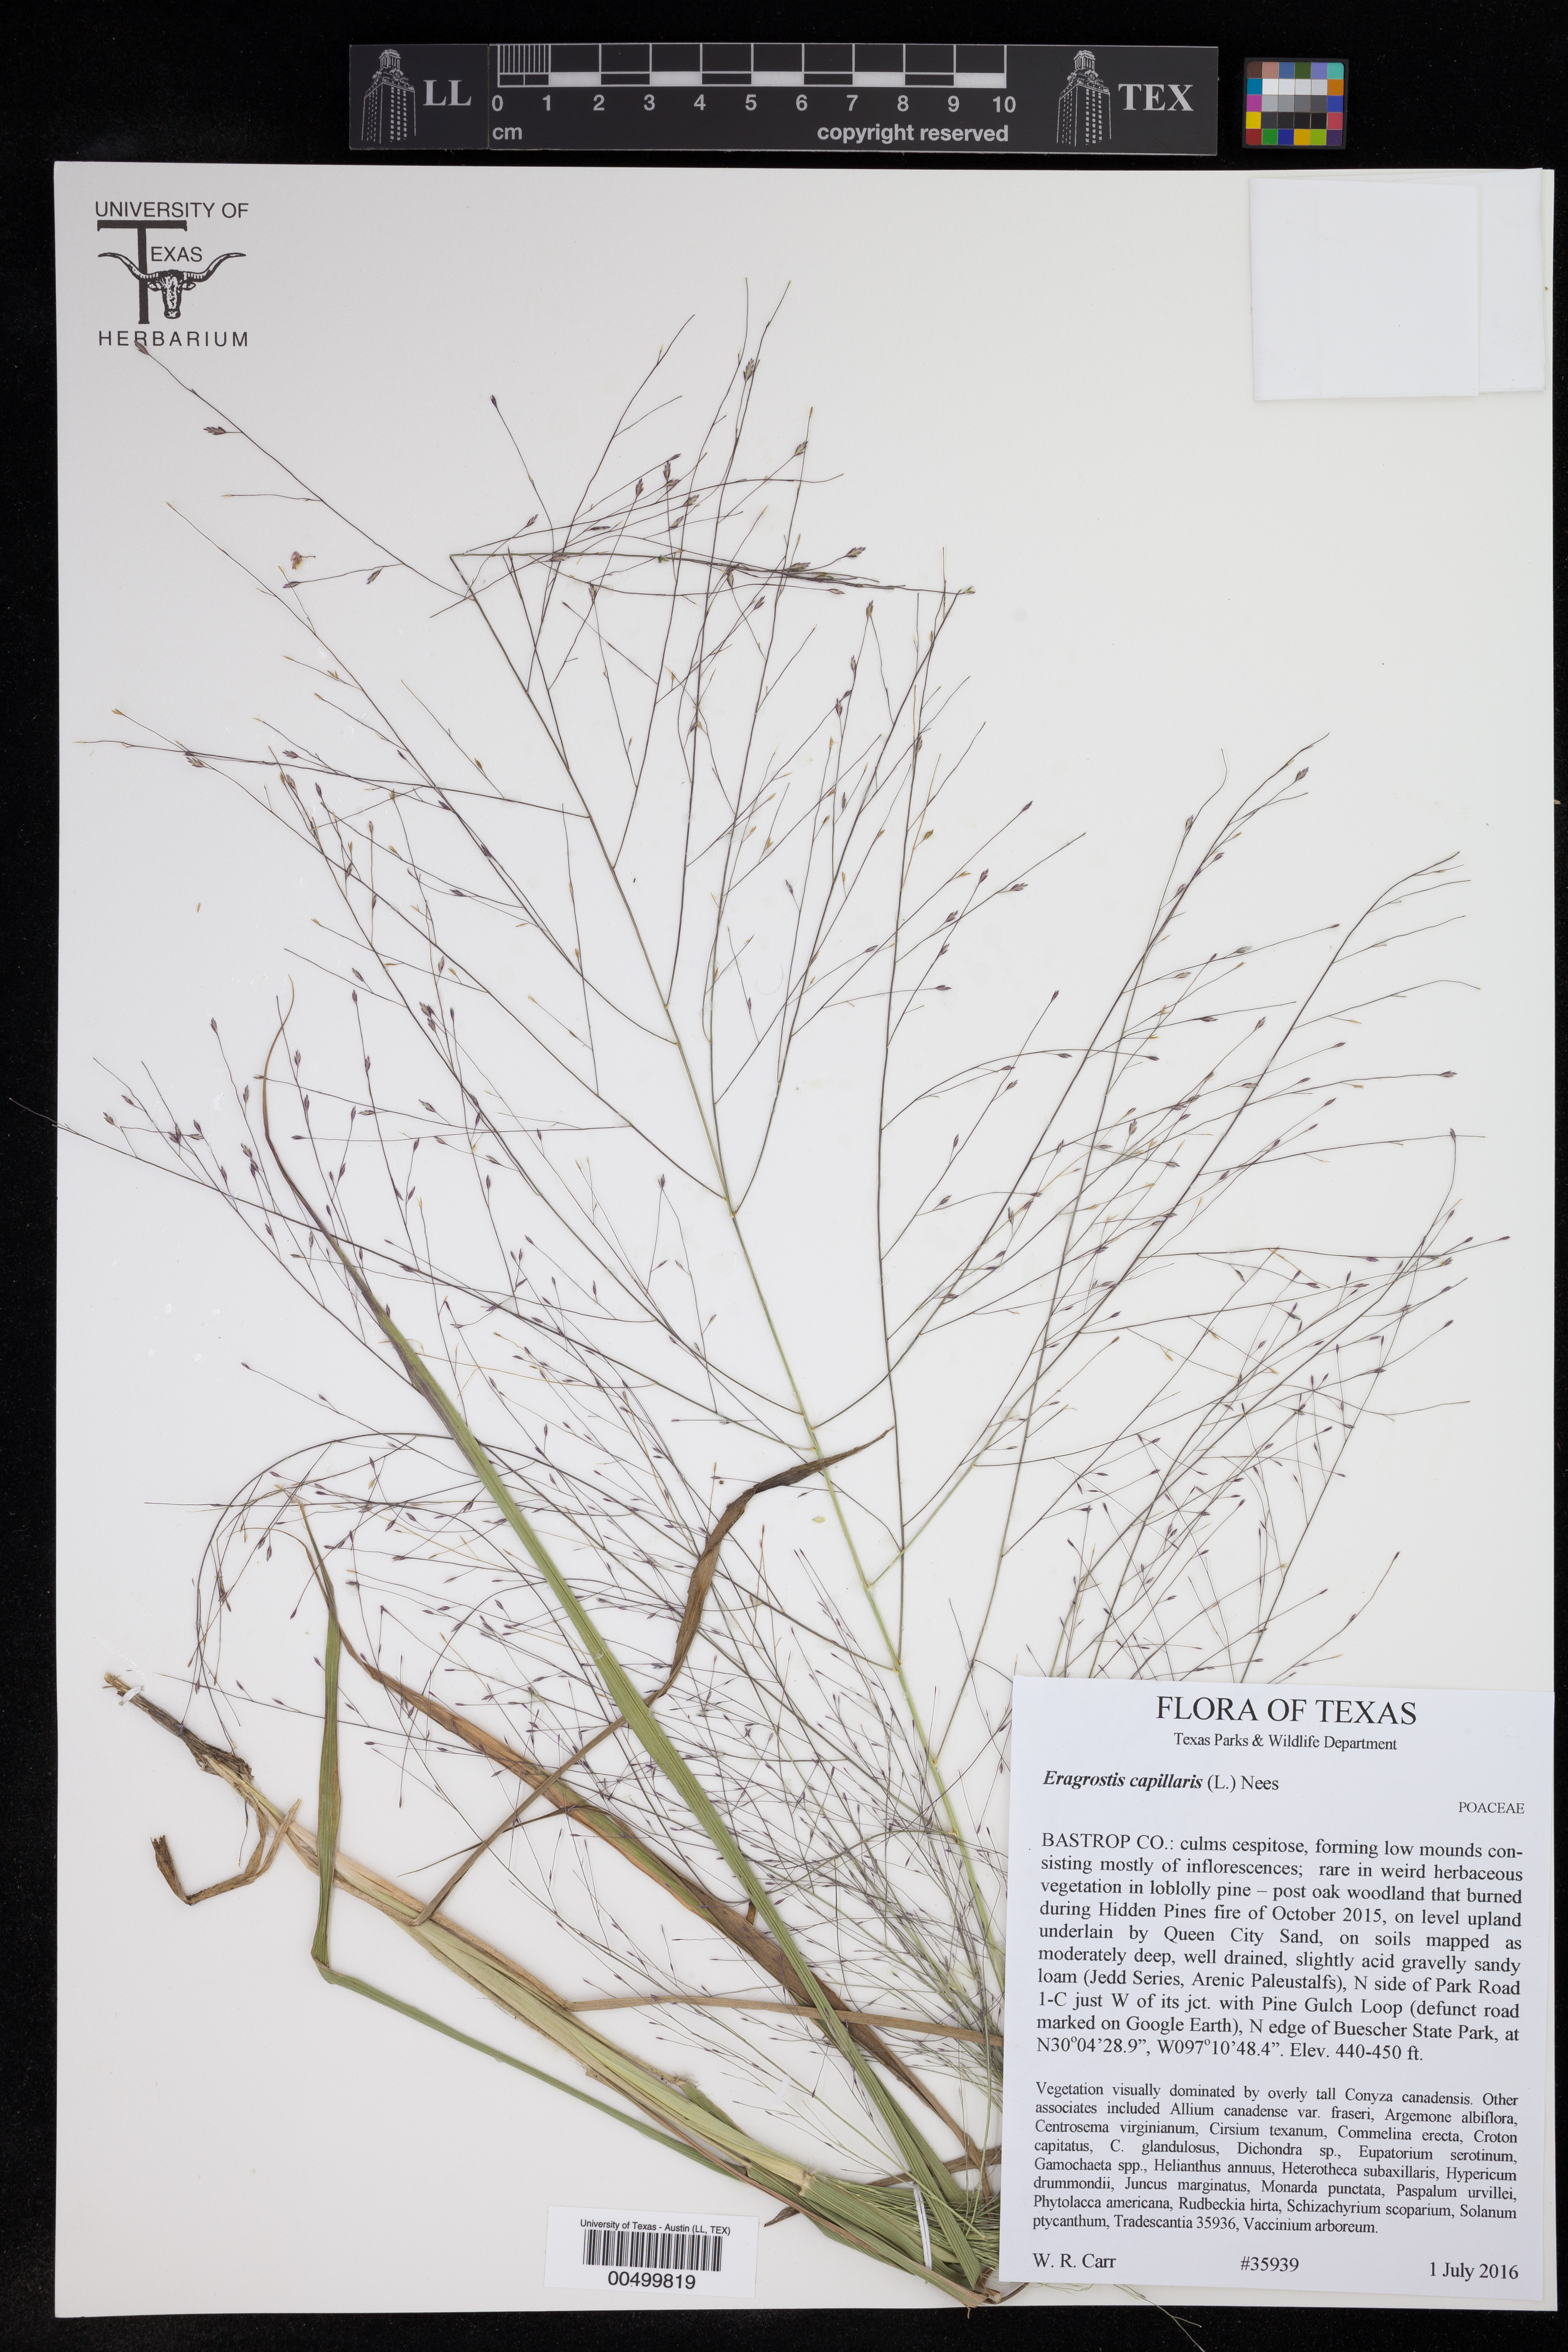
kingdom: Plantae
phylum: Tracheophyta
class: Liliopsida
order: Poales
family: Poaceae
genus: Eragrostis
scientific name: Eragrostis capillaris
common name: Hair-like lovegrass
